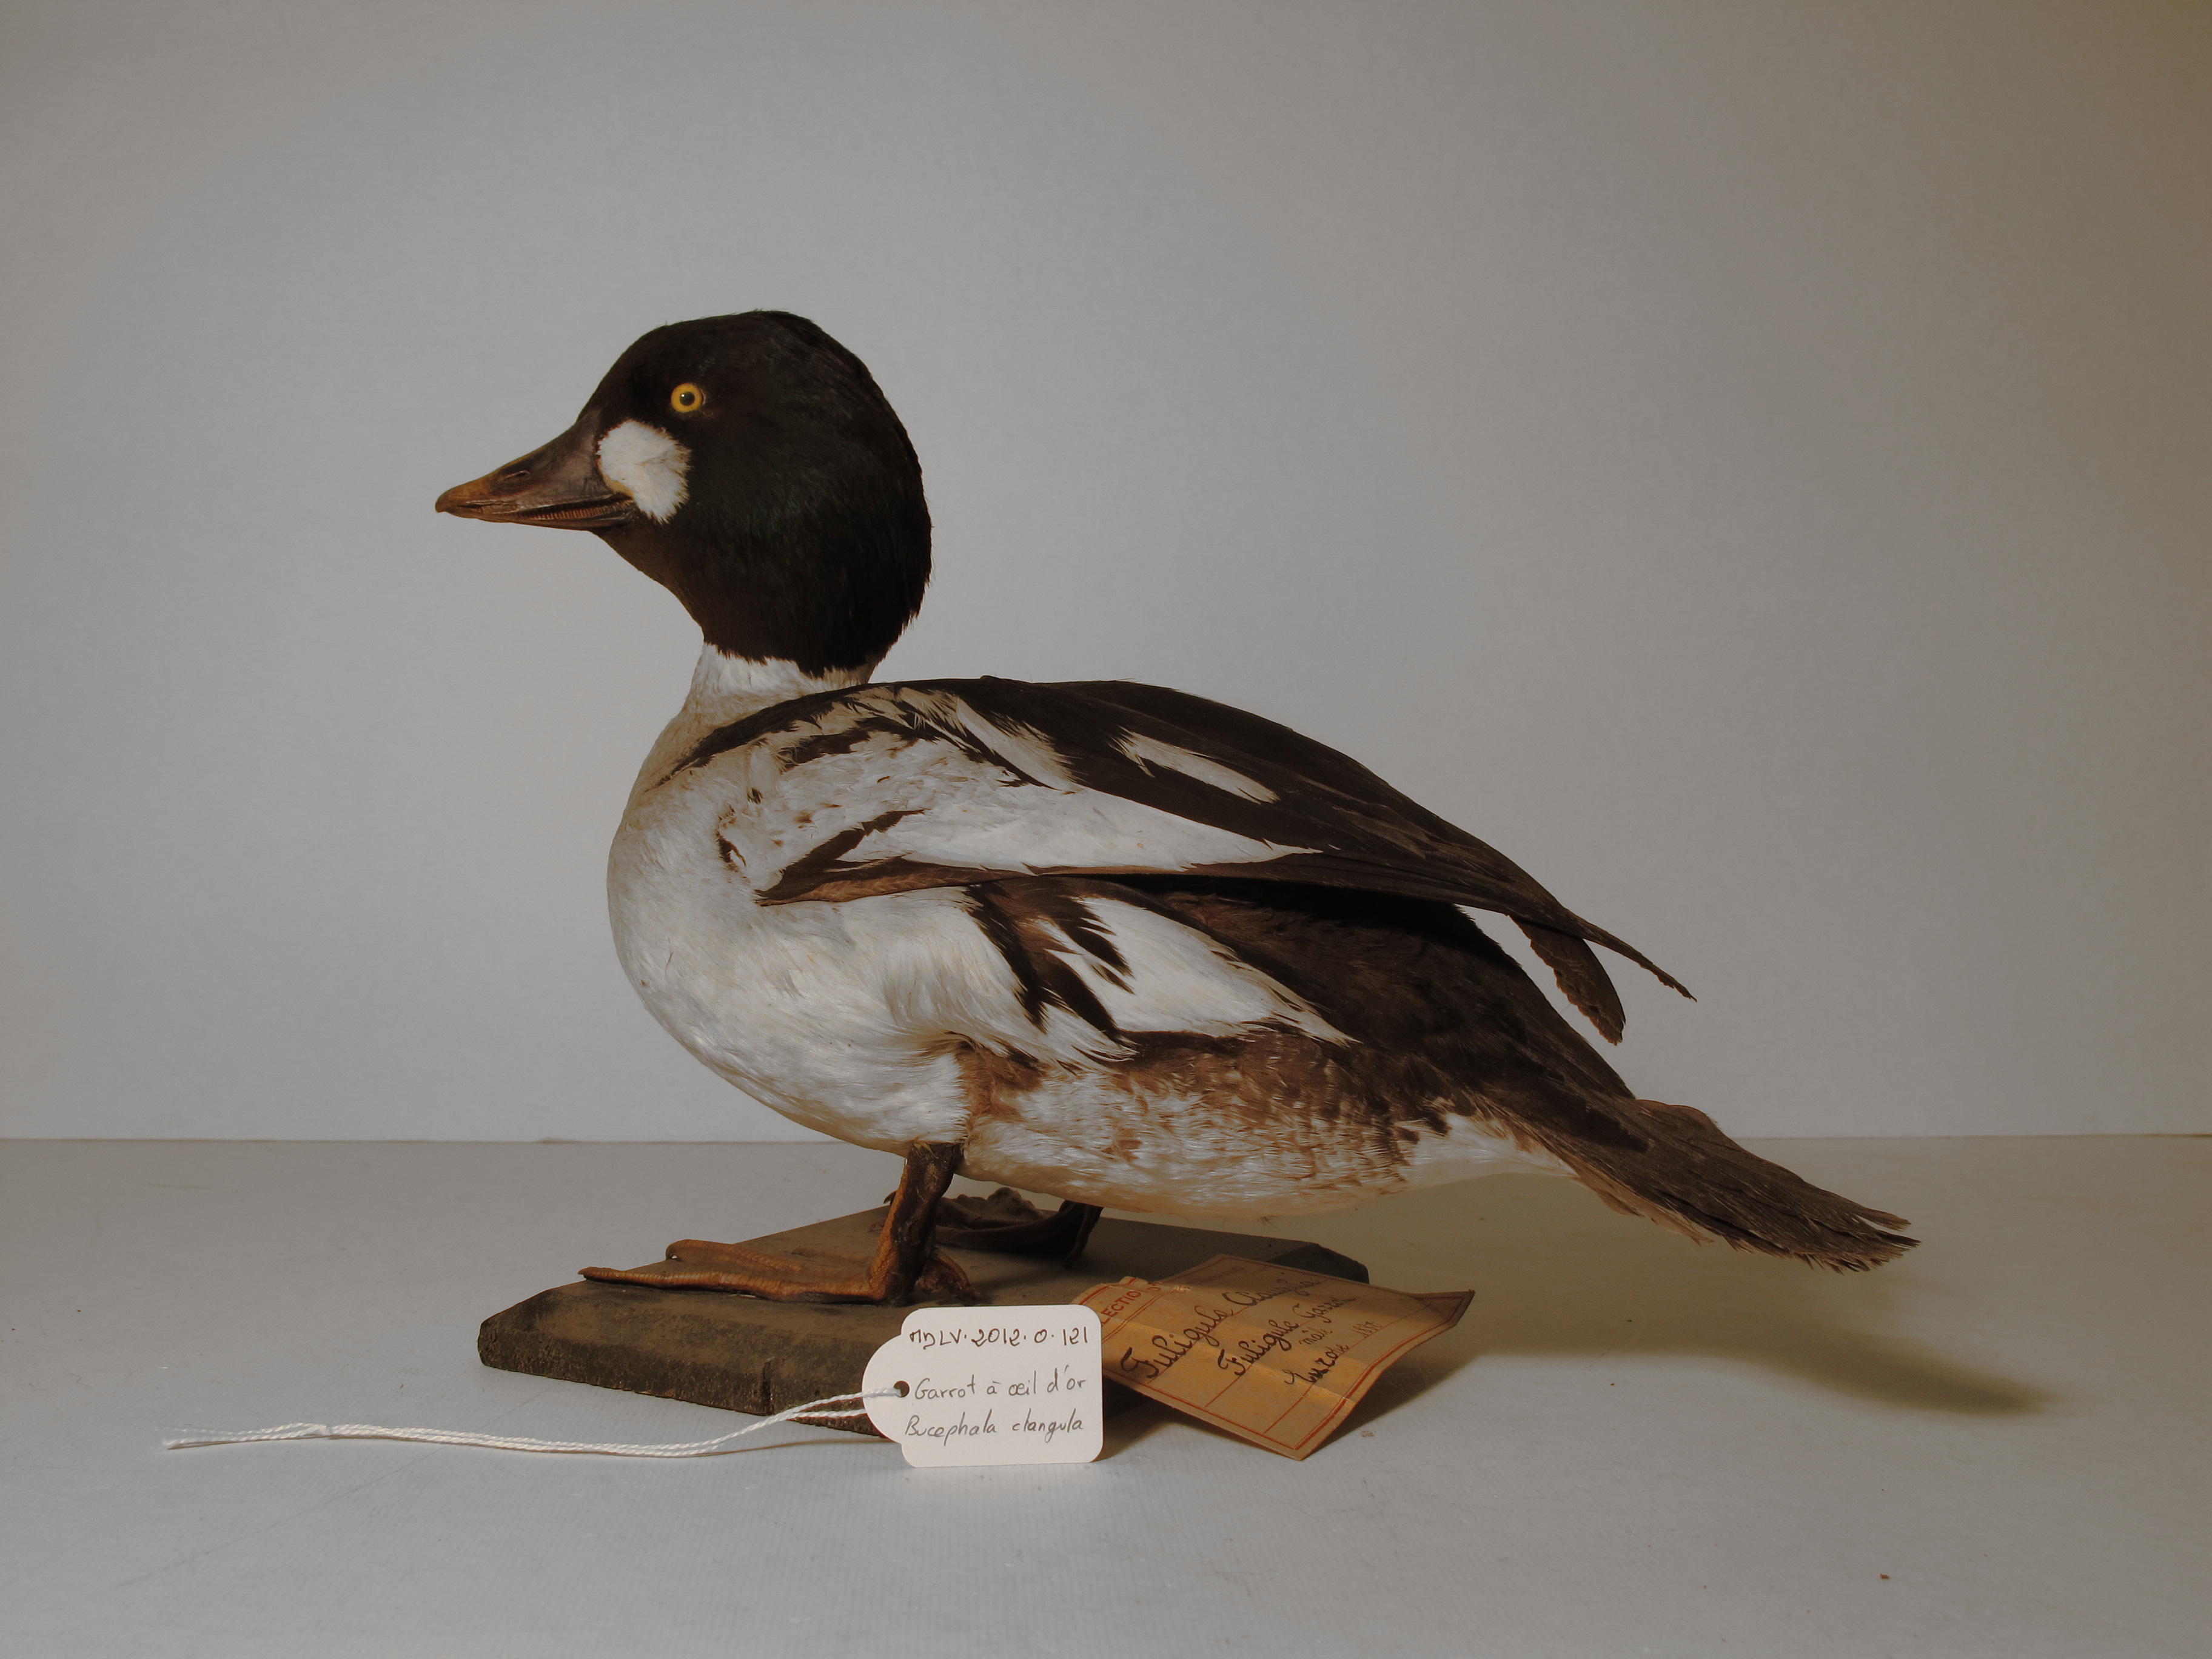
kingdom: Animalia
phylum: Chordata
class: Aves
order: Anseriformes
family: Anatidae
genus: Bucephala
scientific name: Bucephala clangula
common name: Common Goldeneye
